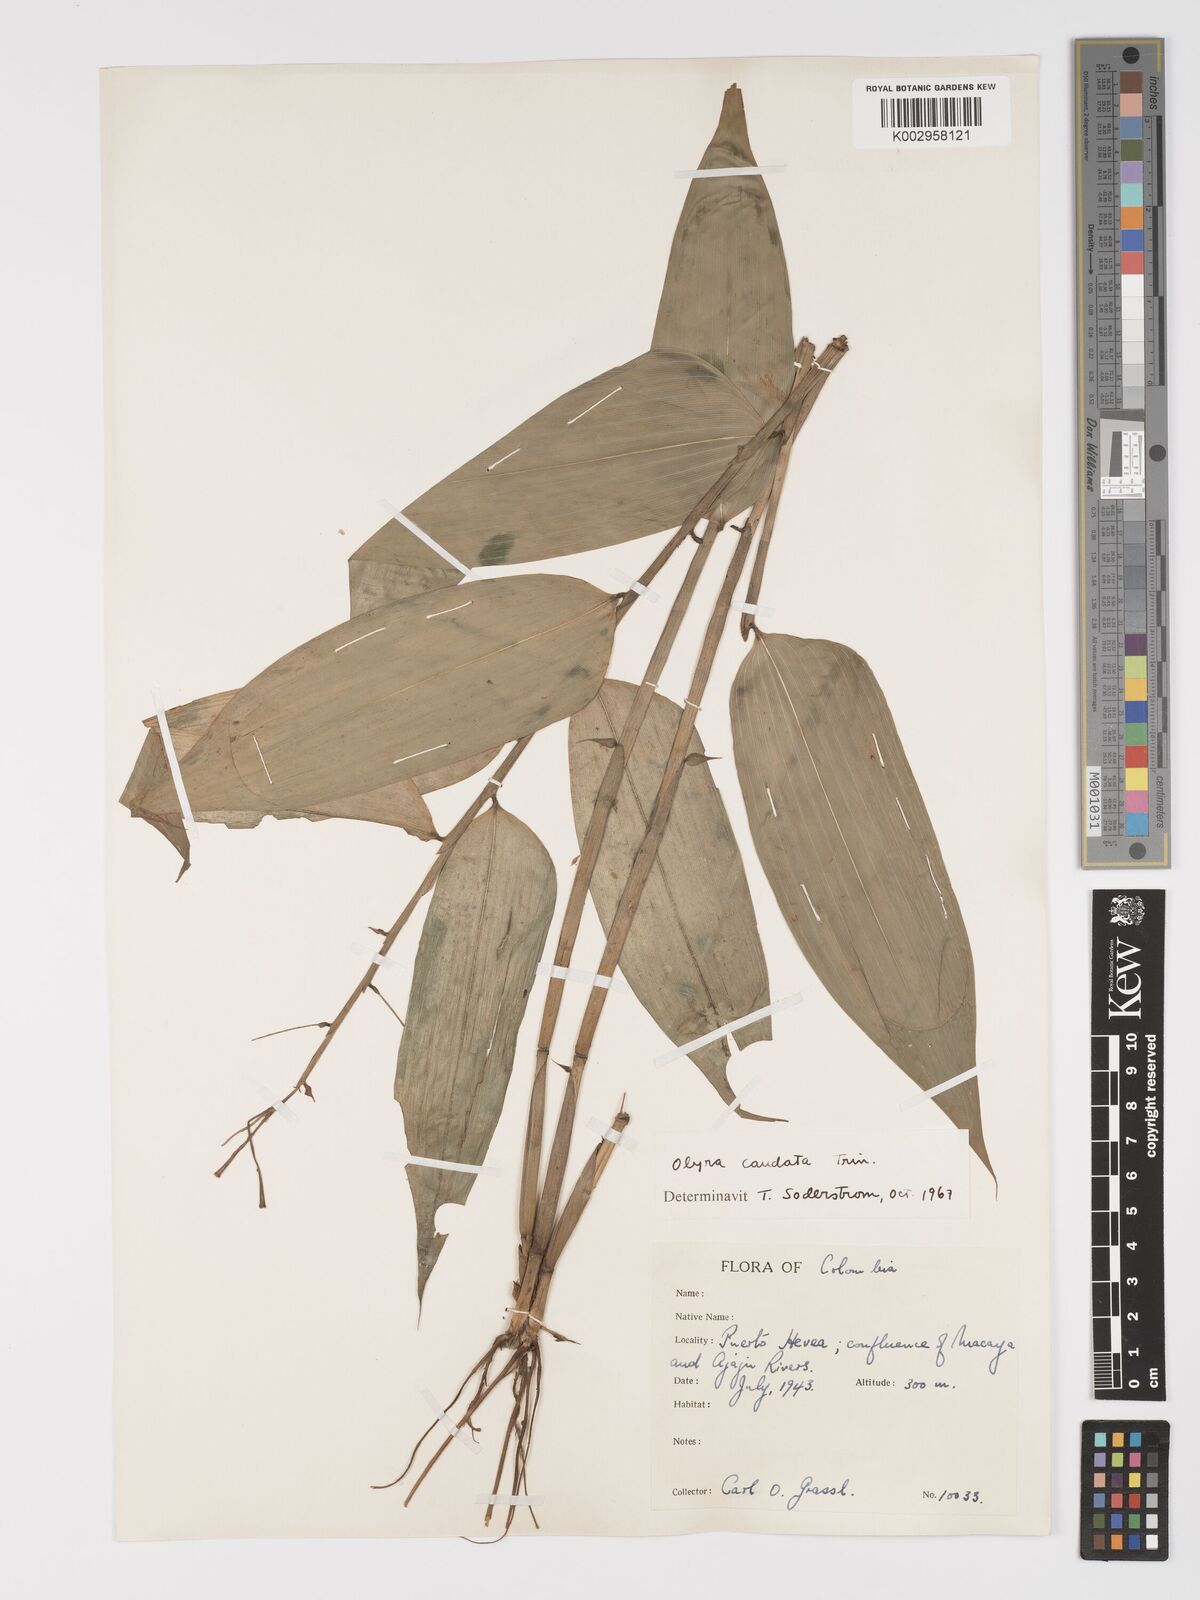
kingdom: Plantae
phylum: Tracheophyta
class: Liliopsida
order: Poales
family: Poaceae
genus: Olyra
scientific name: Olyra caudata
